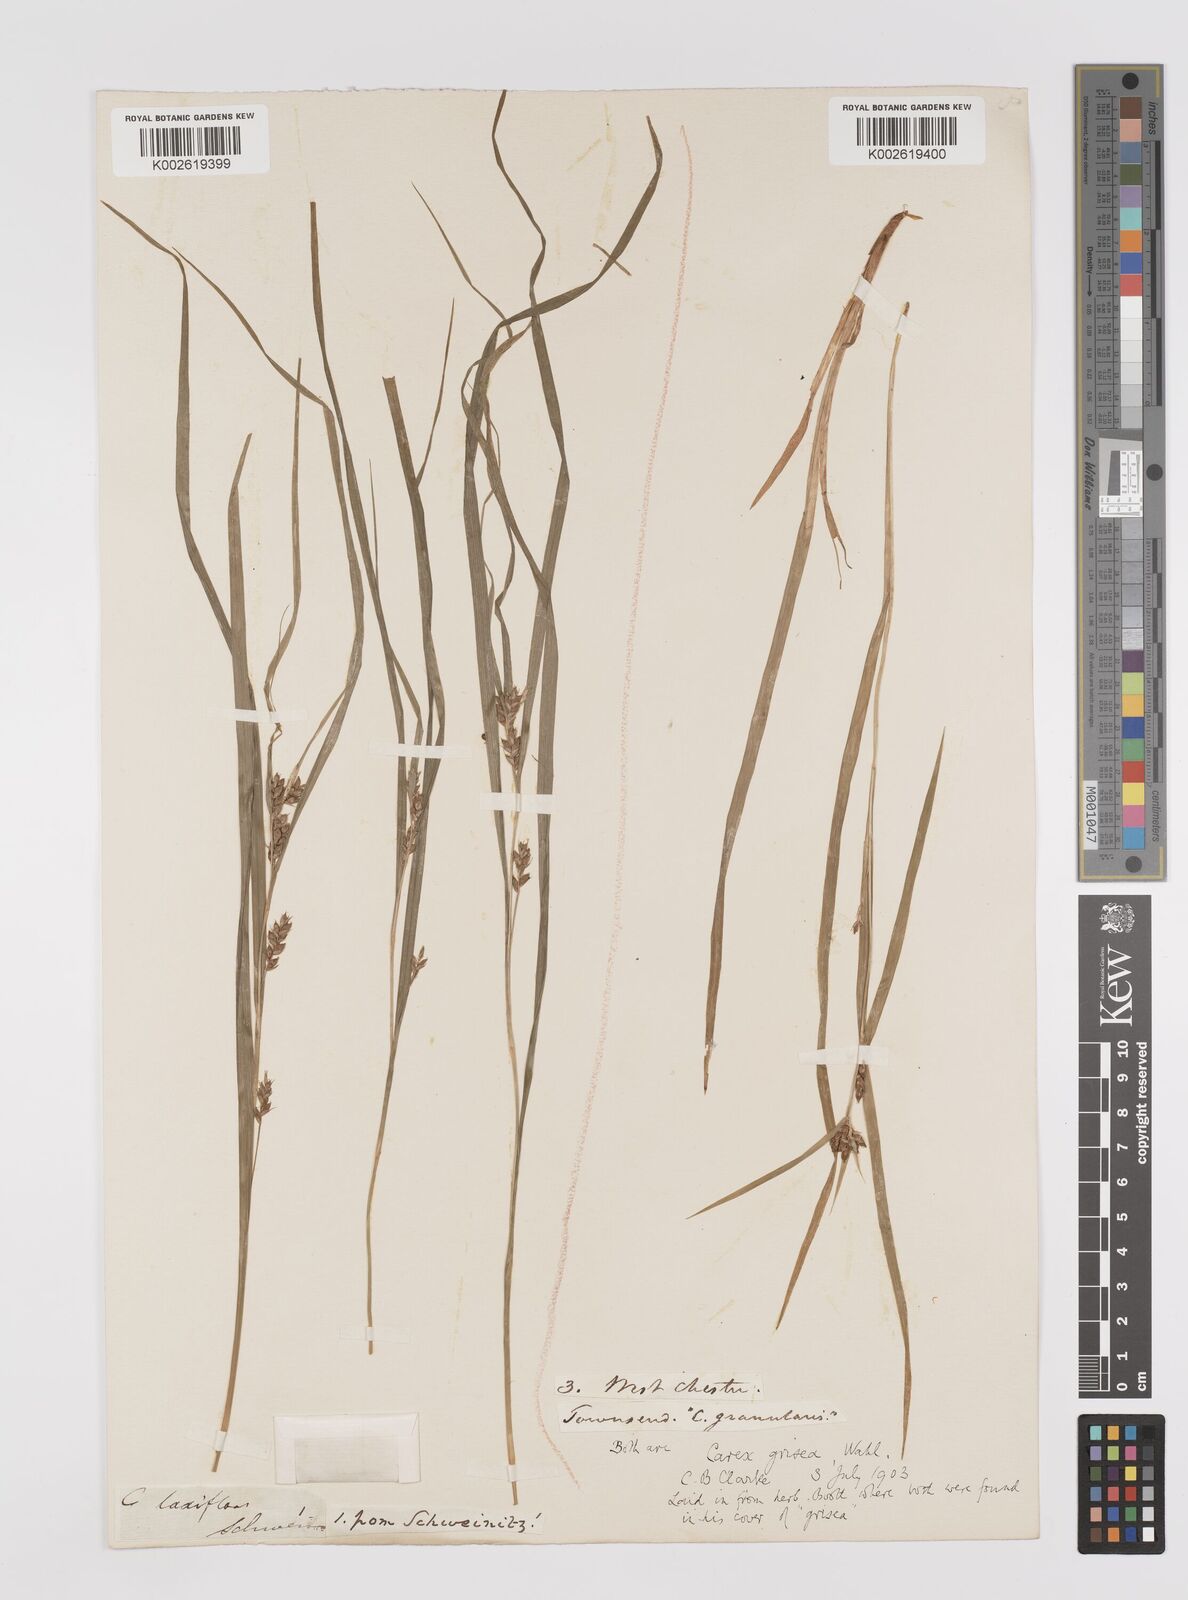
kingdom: Plantae
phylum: Tracheophyta
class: Liliopsida
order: Poales
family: Cyperaceae
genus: Carex
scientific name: Carex grisea
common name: Eastern narrow-leaved sedge
